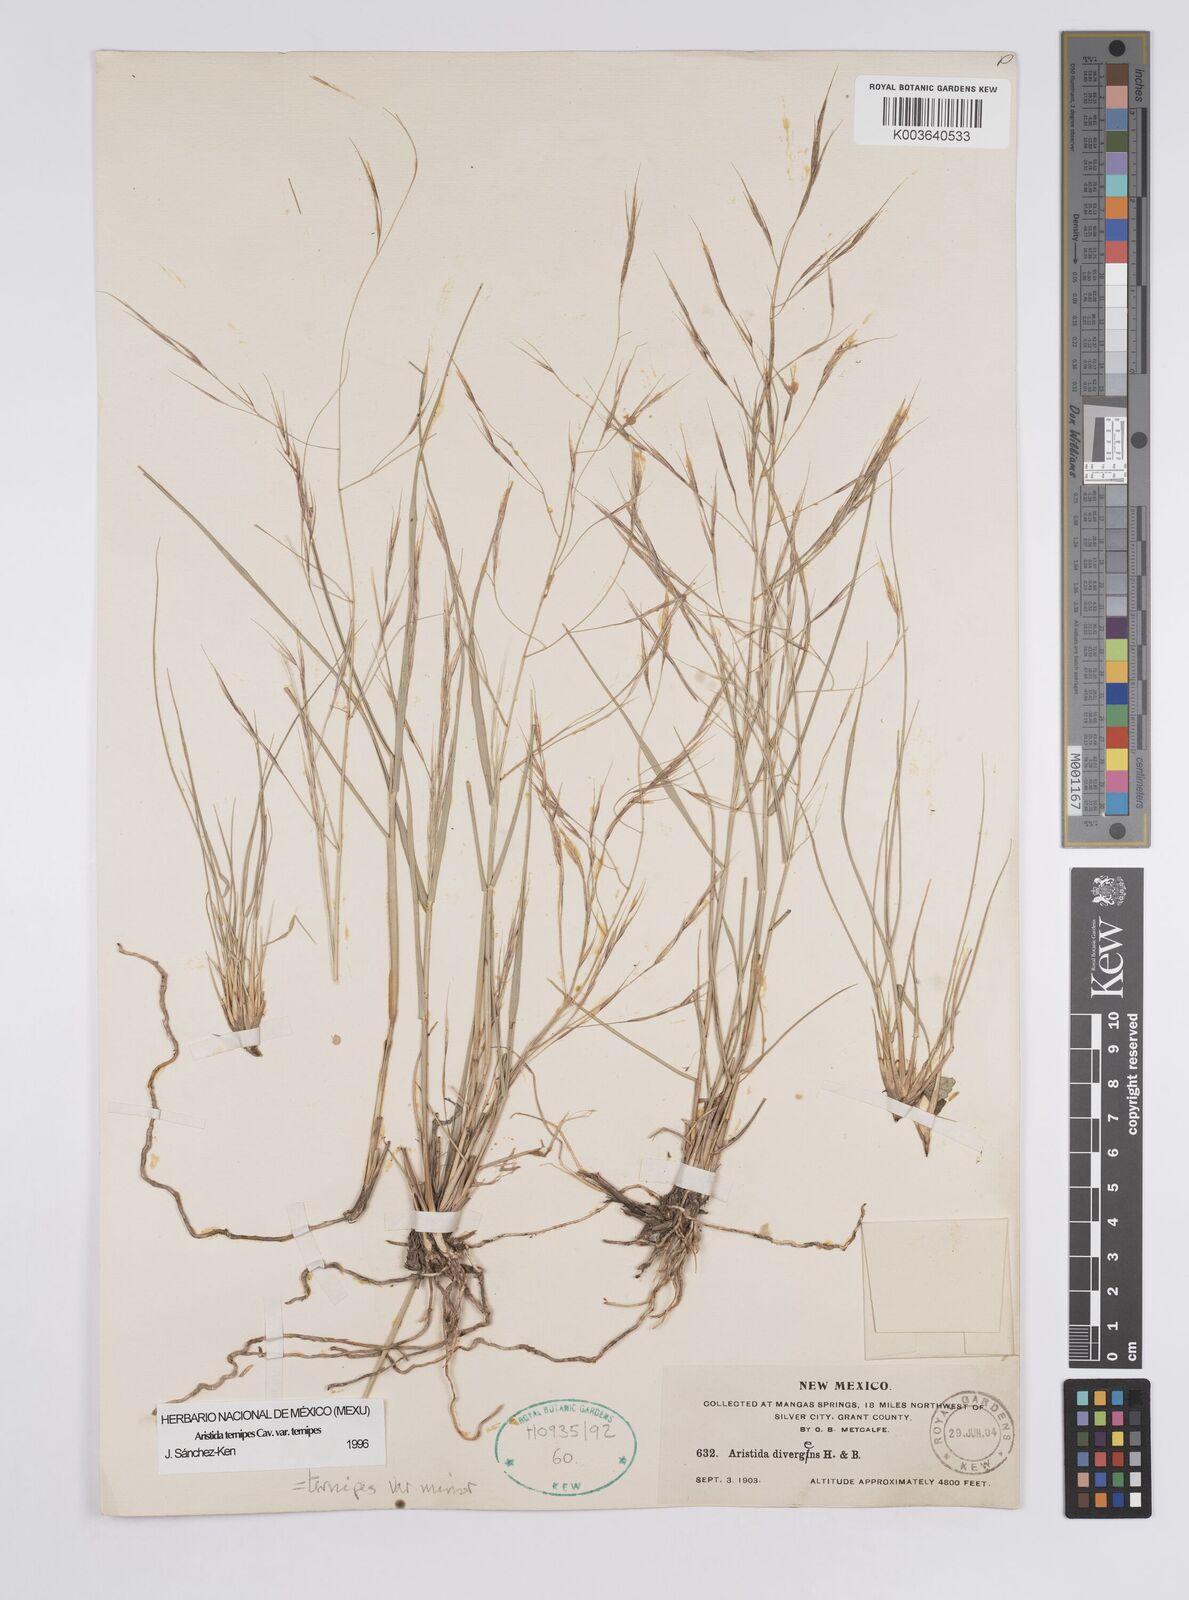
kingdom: Plantae
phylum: Tracheophyta
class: Liliopsida
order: Poales
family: Poaceae
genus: Aristida
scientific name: Aristida ternipes
